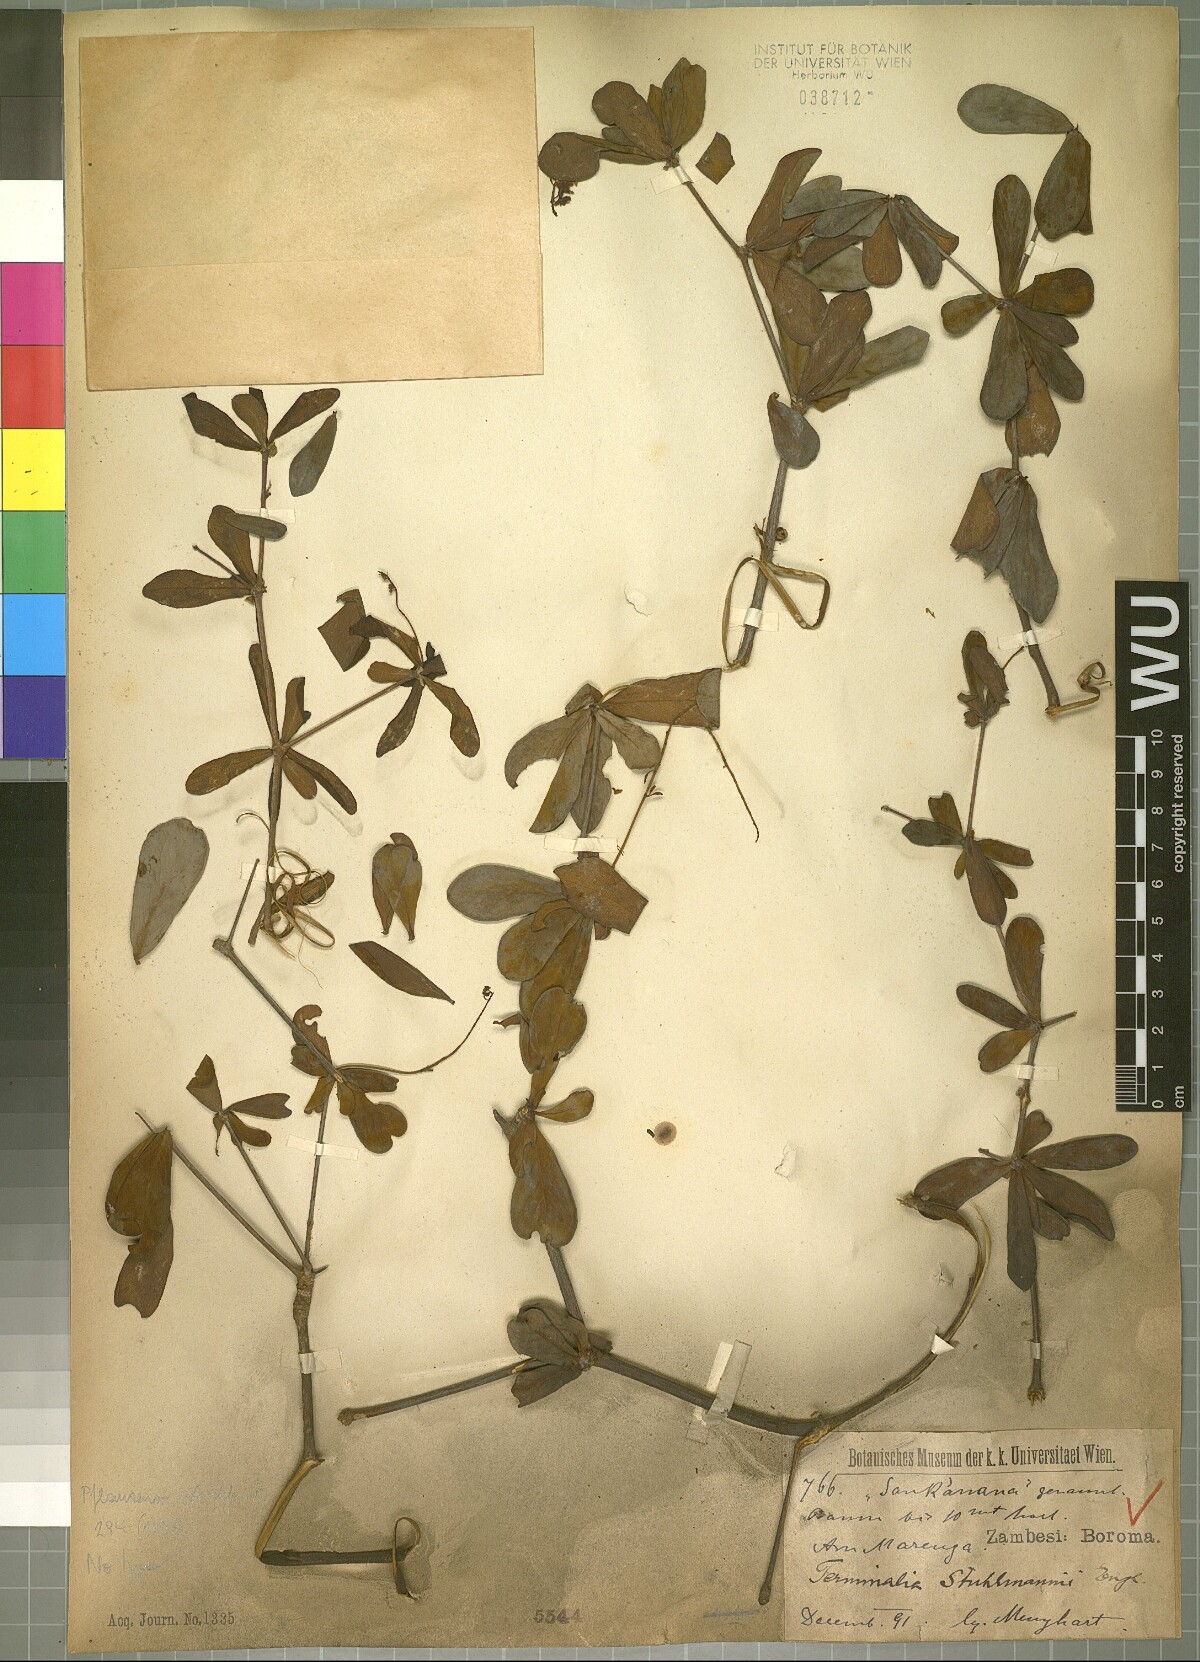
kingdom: Plantae
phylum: Tracheophyta
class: Magnoliopsida
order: Myrtales
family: Combretaceae
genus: Terminalia
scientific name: Terminalia stuhlmannii
